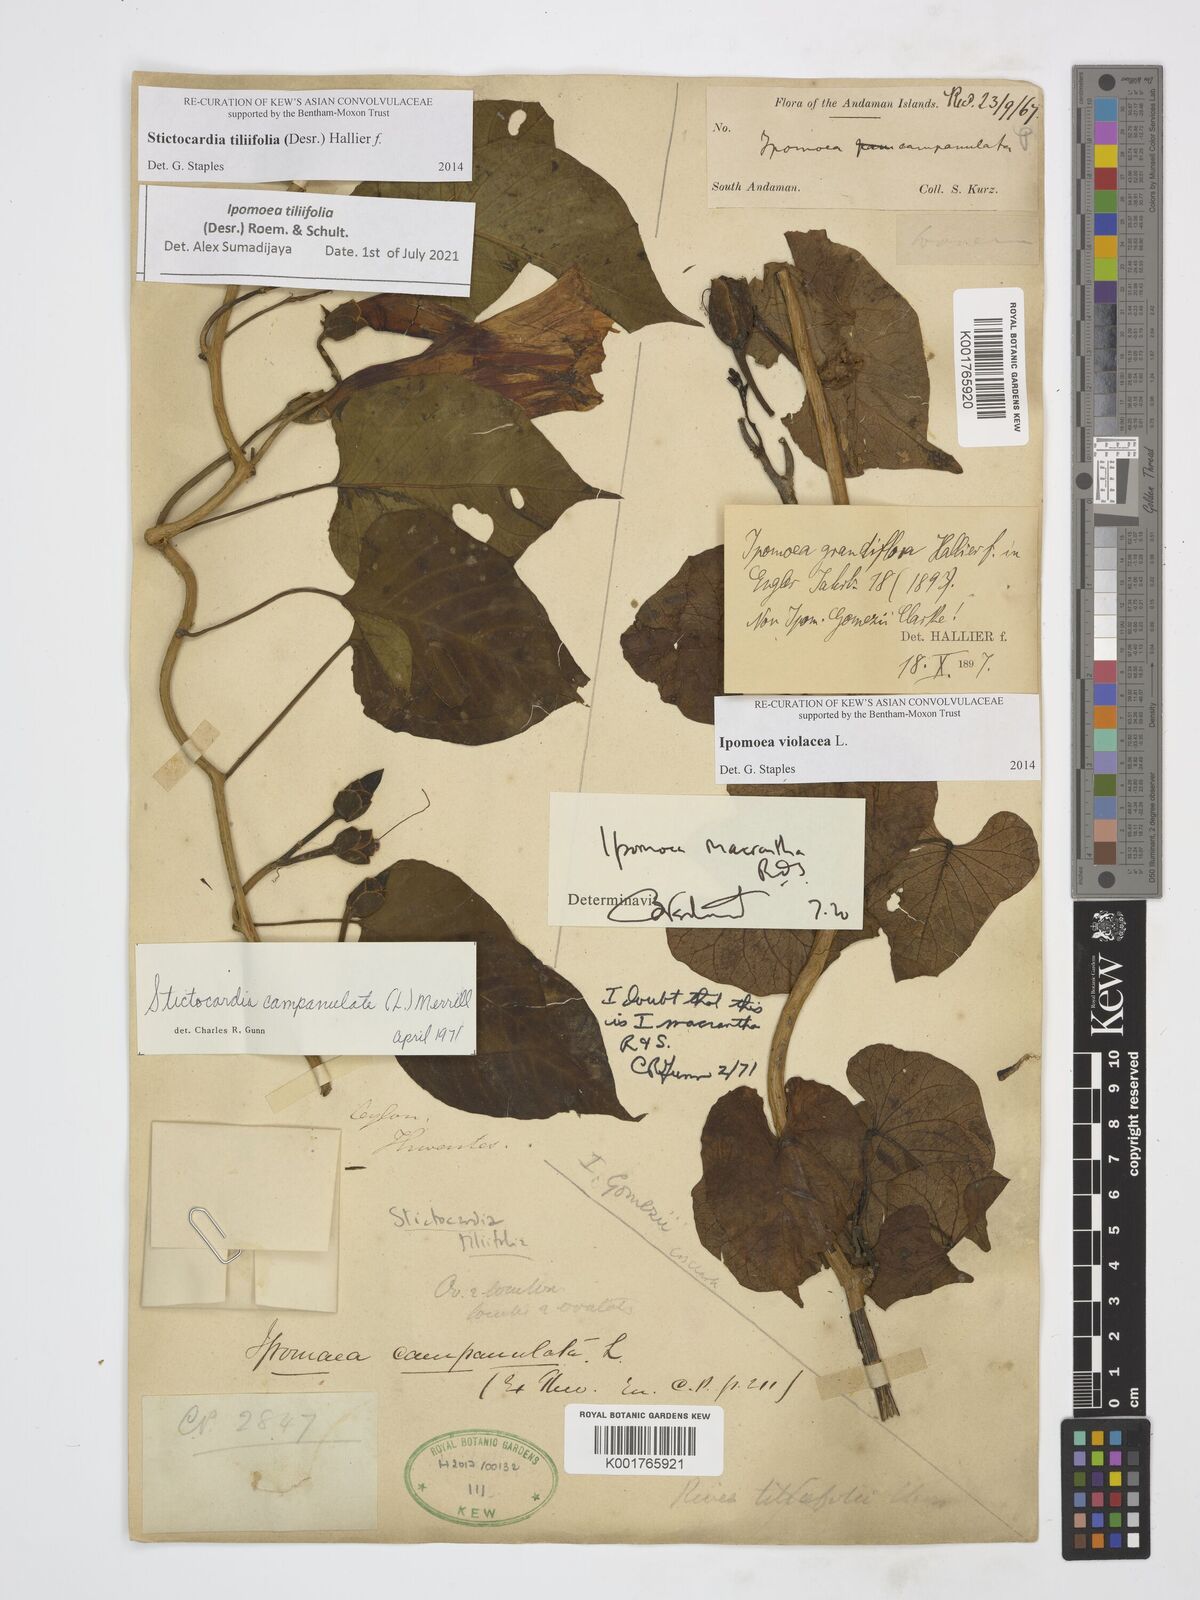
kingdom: Plantae
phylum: Tracheophyta
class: Magnoliopsida
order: Solanales
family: Convolvulaceae
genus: Ipomoea
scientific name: Ipomoea violacea
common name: Beach moonflower
